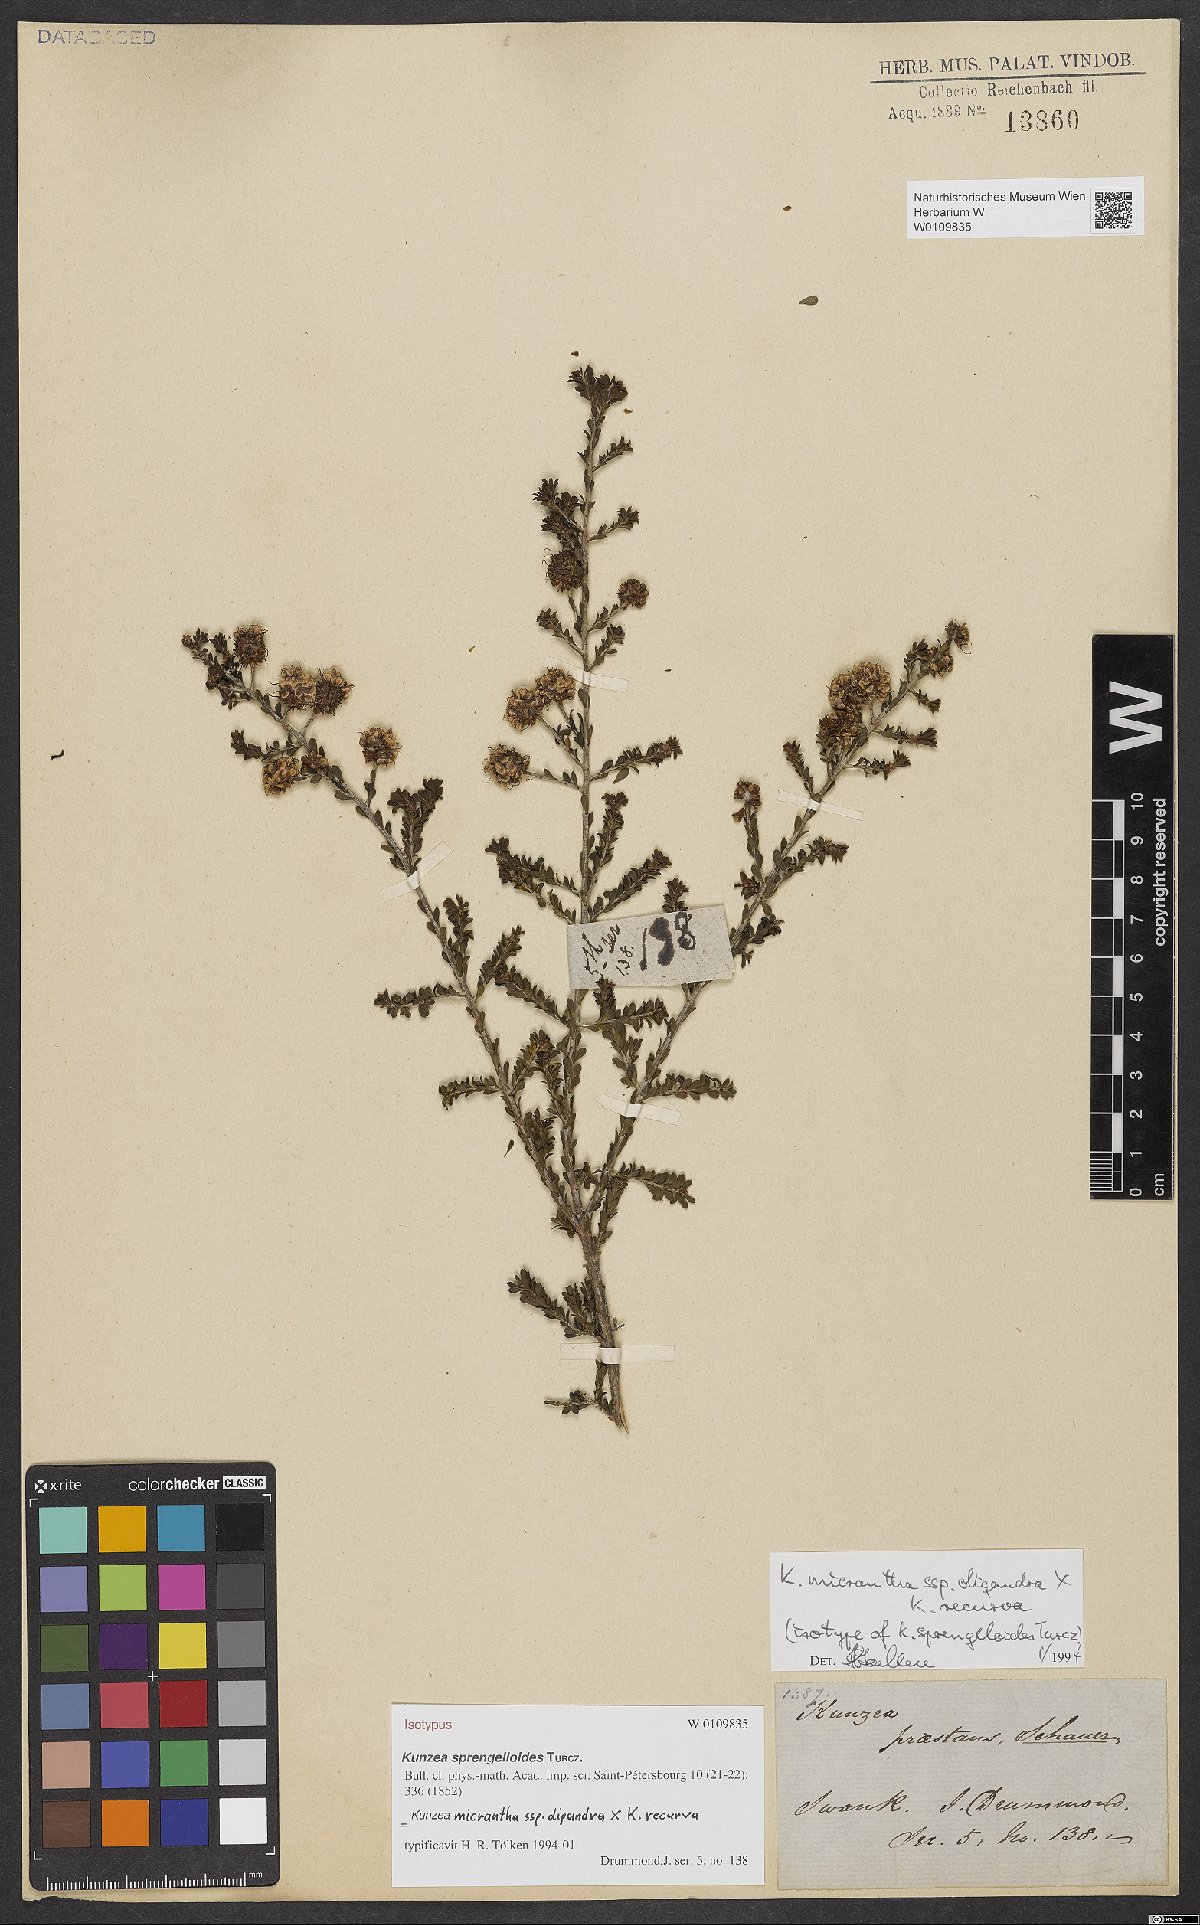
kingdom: Plantae
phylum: Tracheophyta
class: Magnoliopsida
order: Myrtales
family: Myrtaceae
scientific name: Myrtaceae
